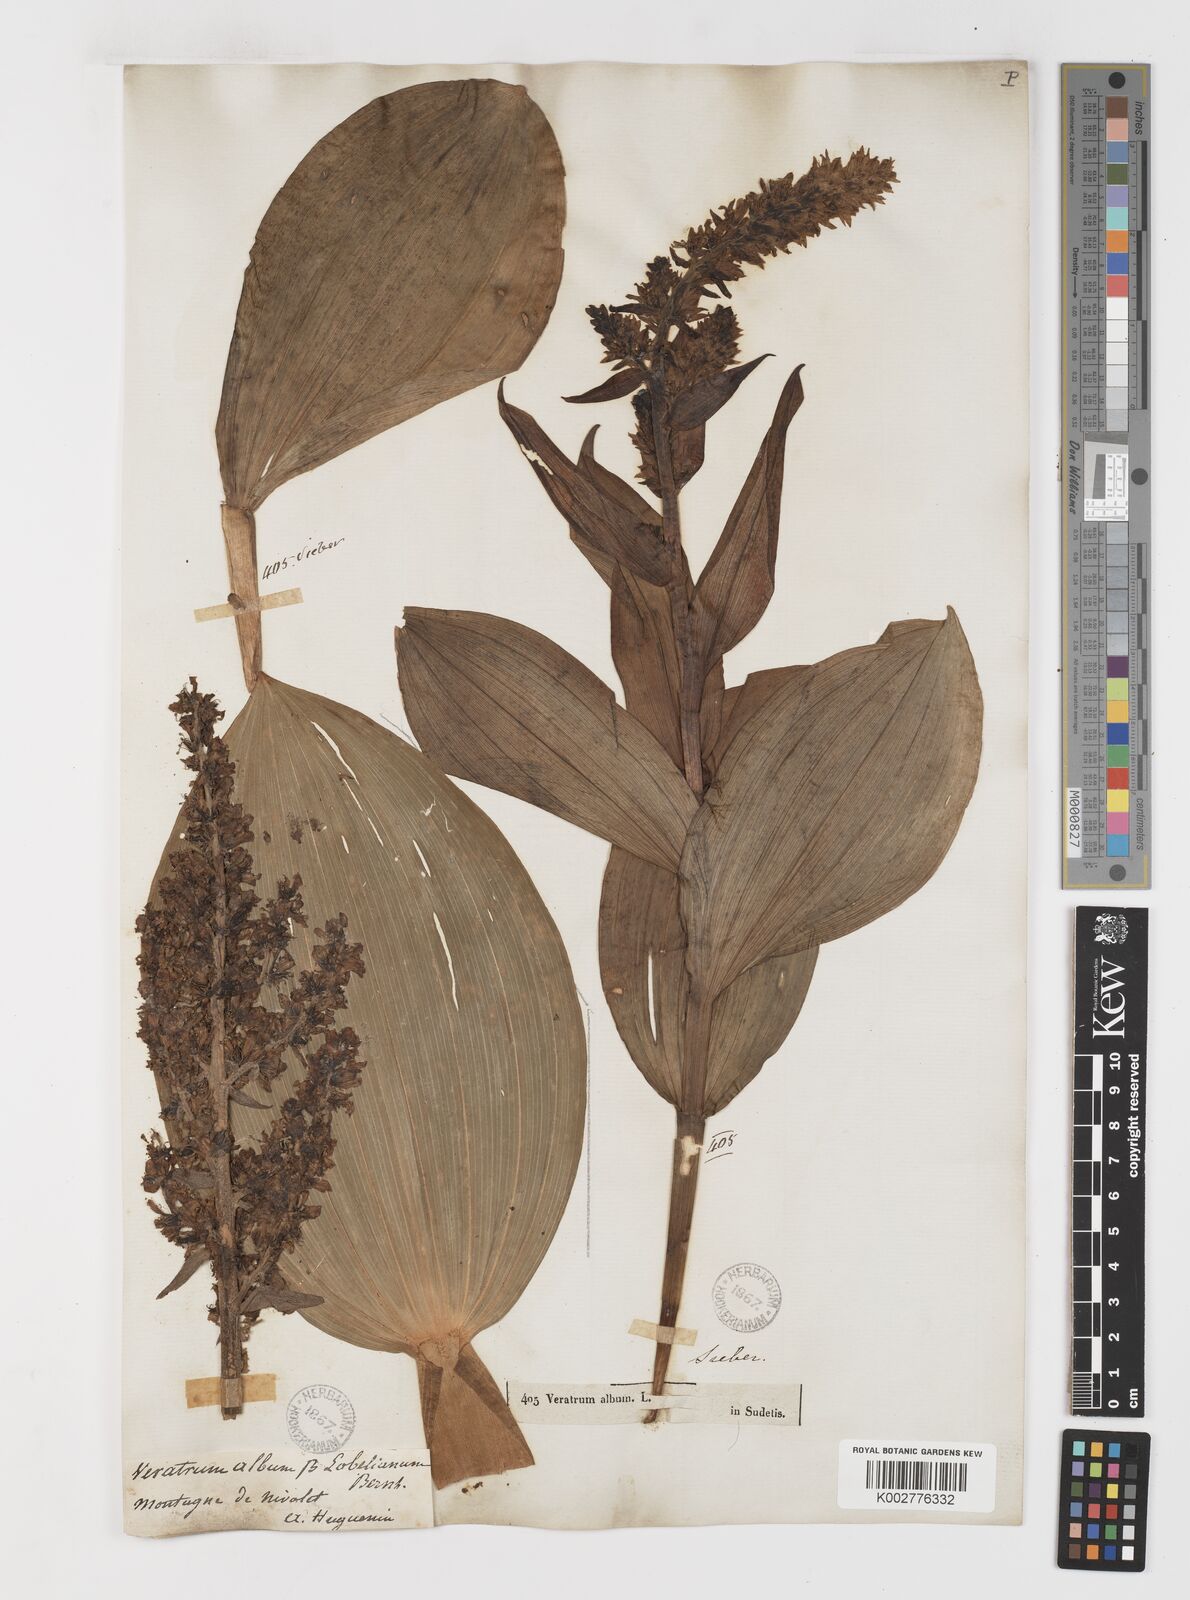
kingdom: Plantae
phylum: Tracheophyta
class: Liliopsida
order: Liliales
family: Melanthiaceae
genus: Veratrum
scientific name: Veratrum album
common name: White veratrum
